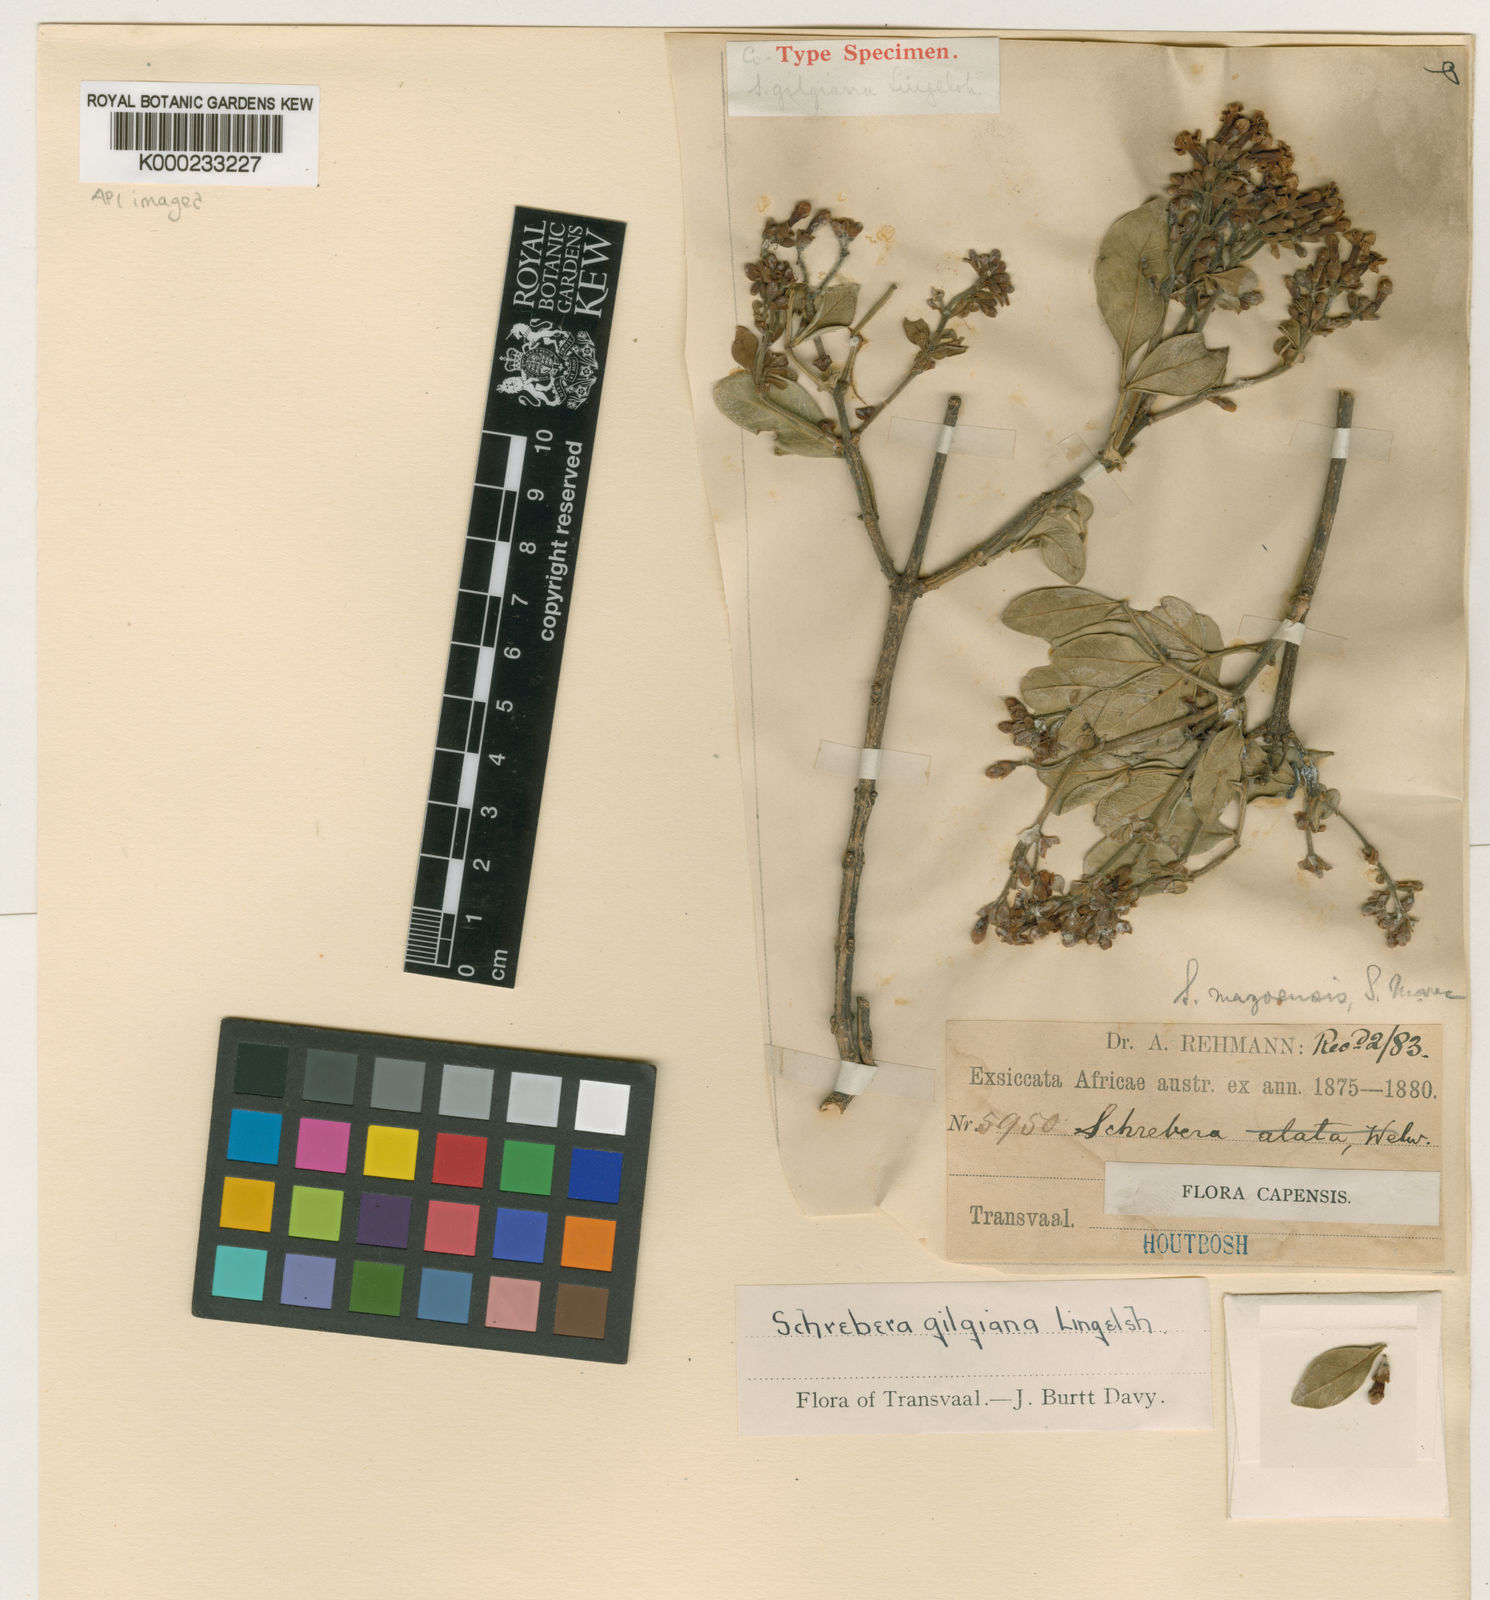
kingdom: Plantae
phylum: Tracheophyta
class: Magnoliopsida
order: Lamiales
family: Oleaceae
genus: Schrebera
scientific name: Schrebera alata
